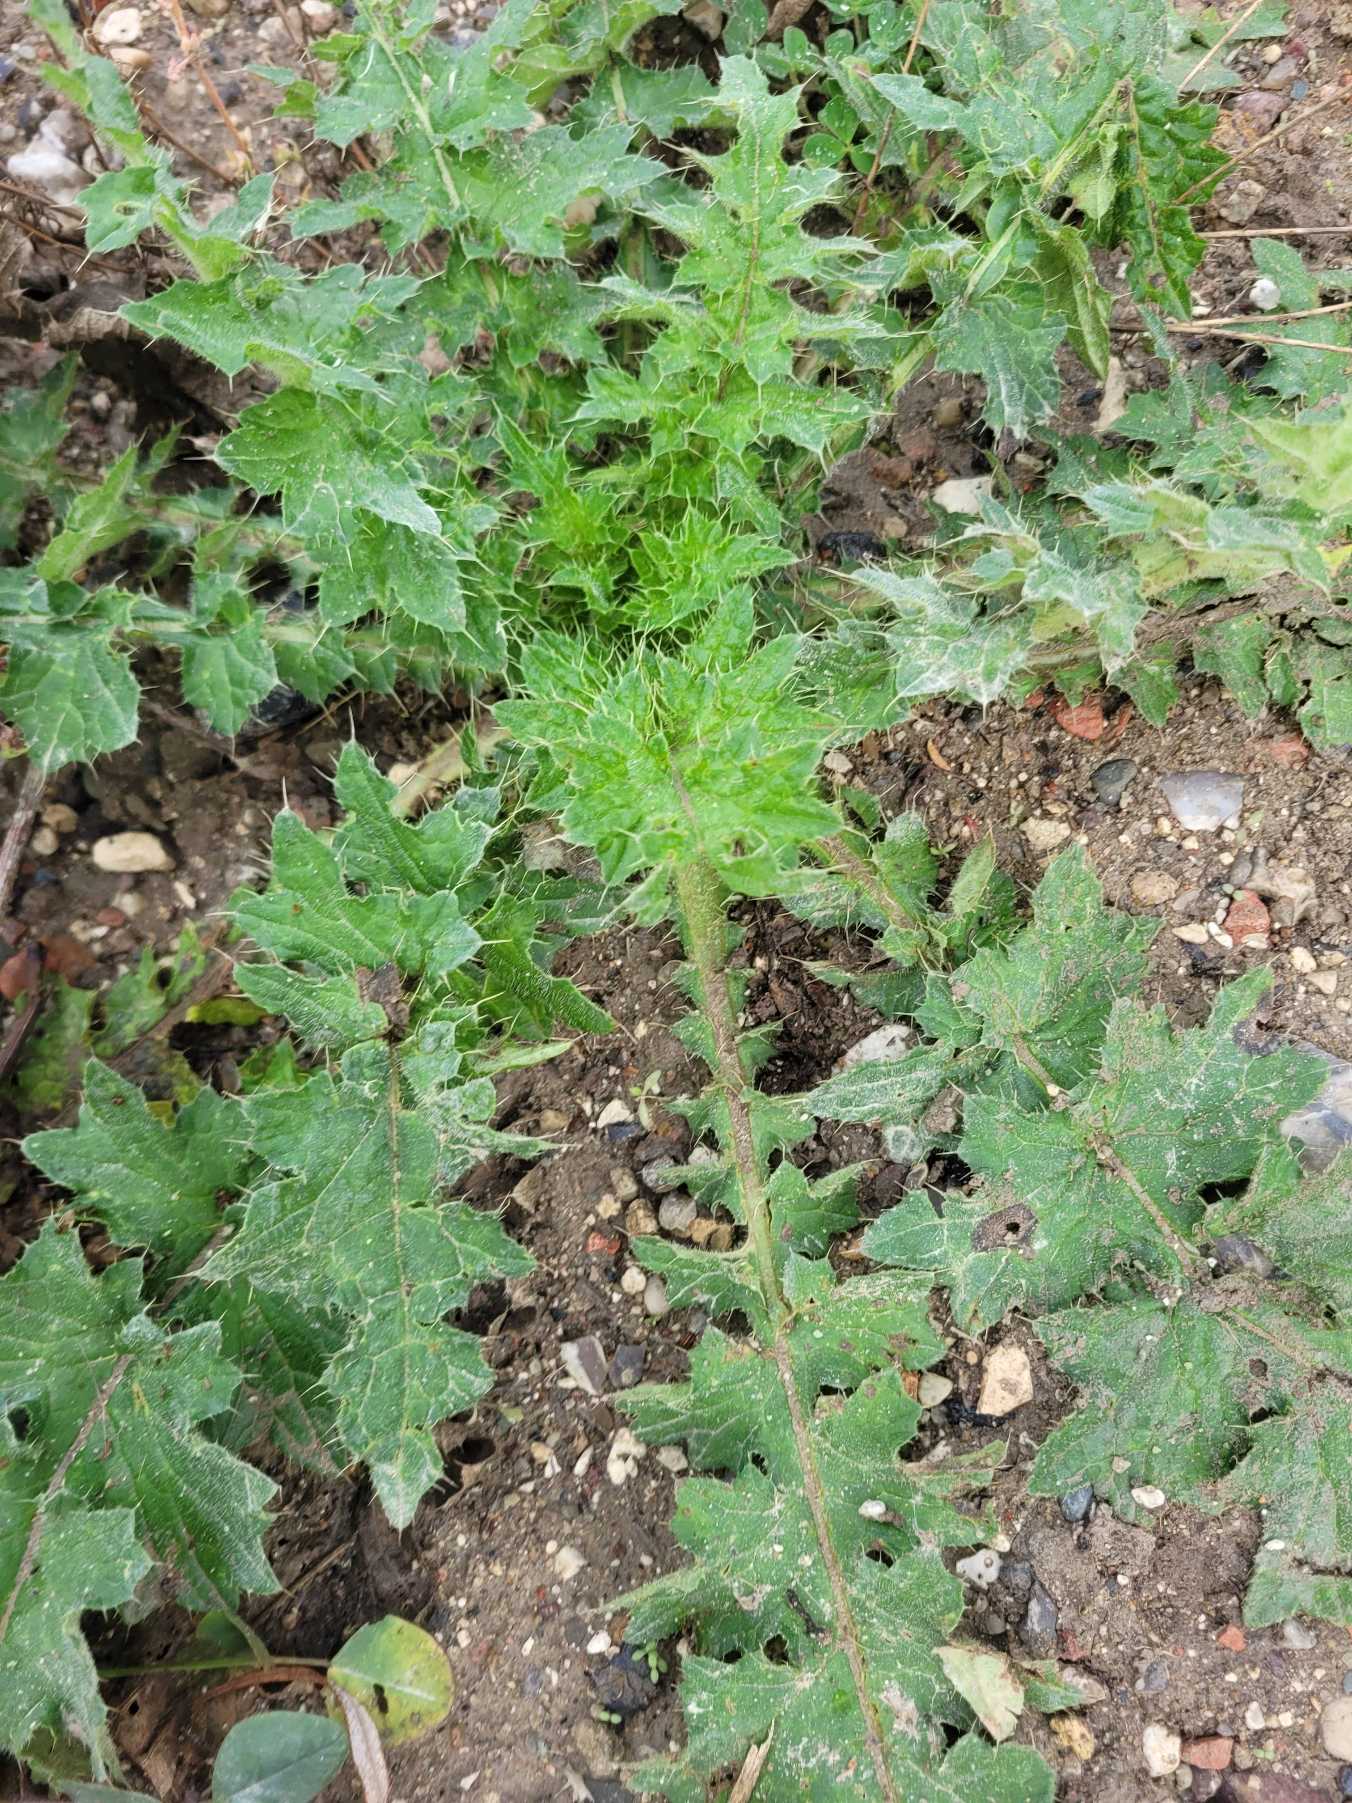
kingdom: Plantae
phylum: Tracheophyta
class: Magnoliopsida
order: Asterales
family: Asteraceae
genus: Cirsium
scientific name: Cirsium vulgare
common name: Horse-tidsel
